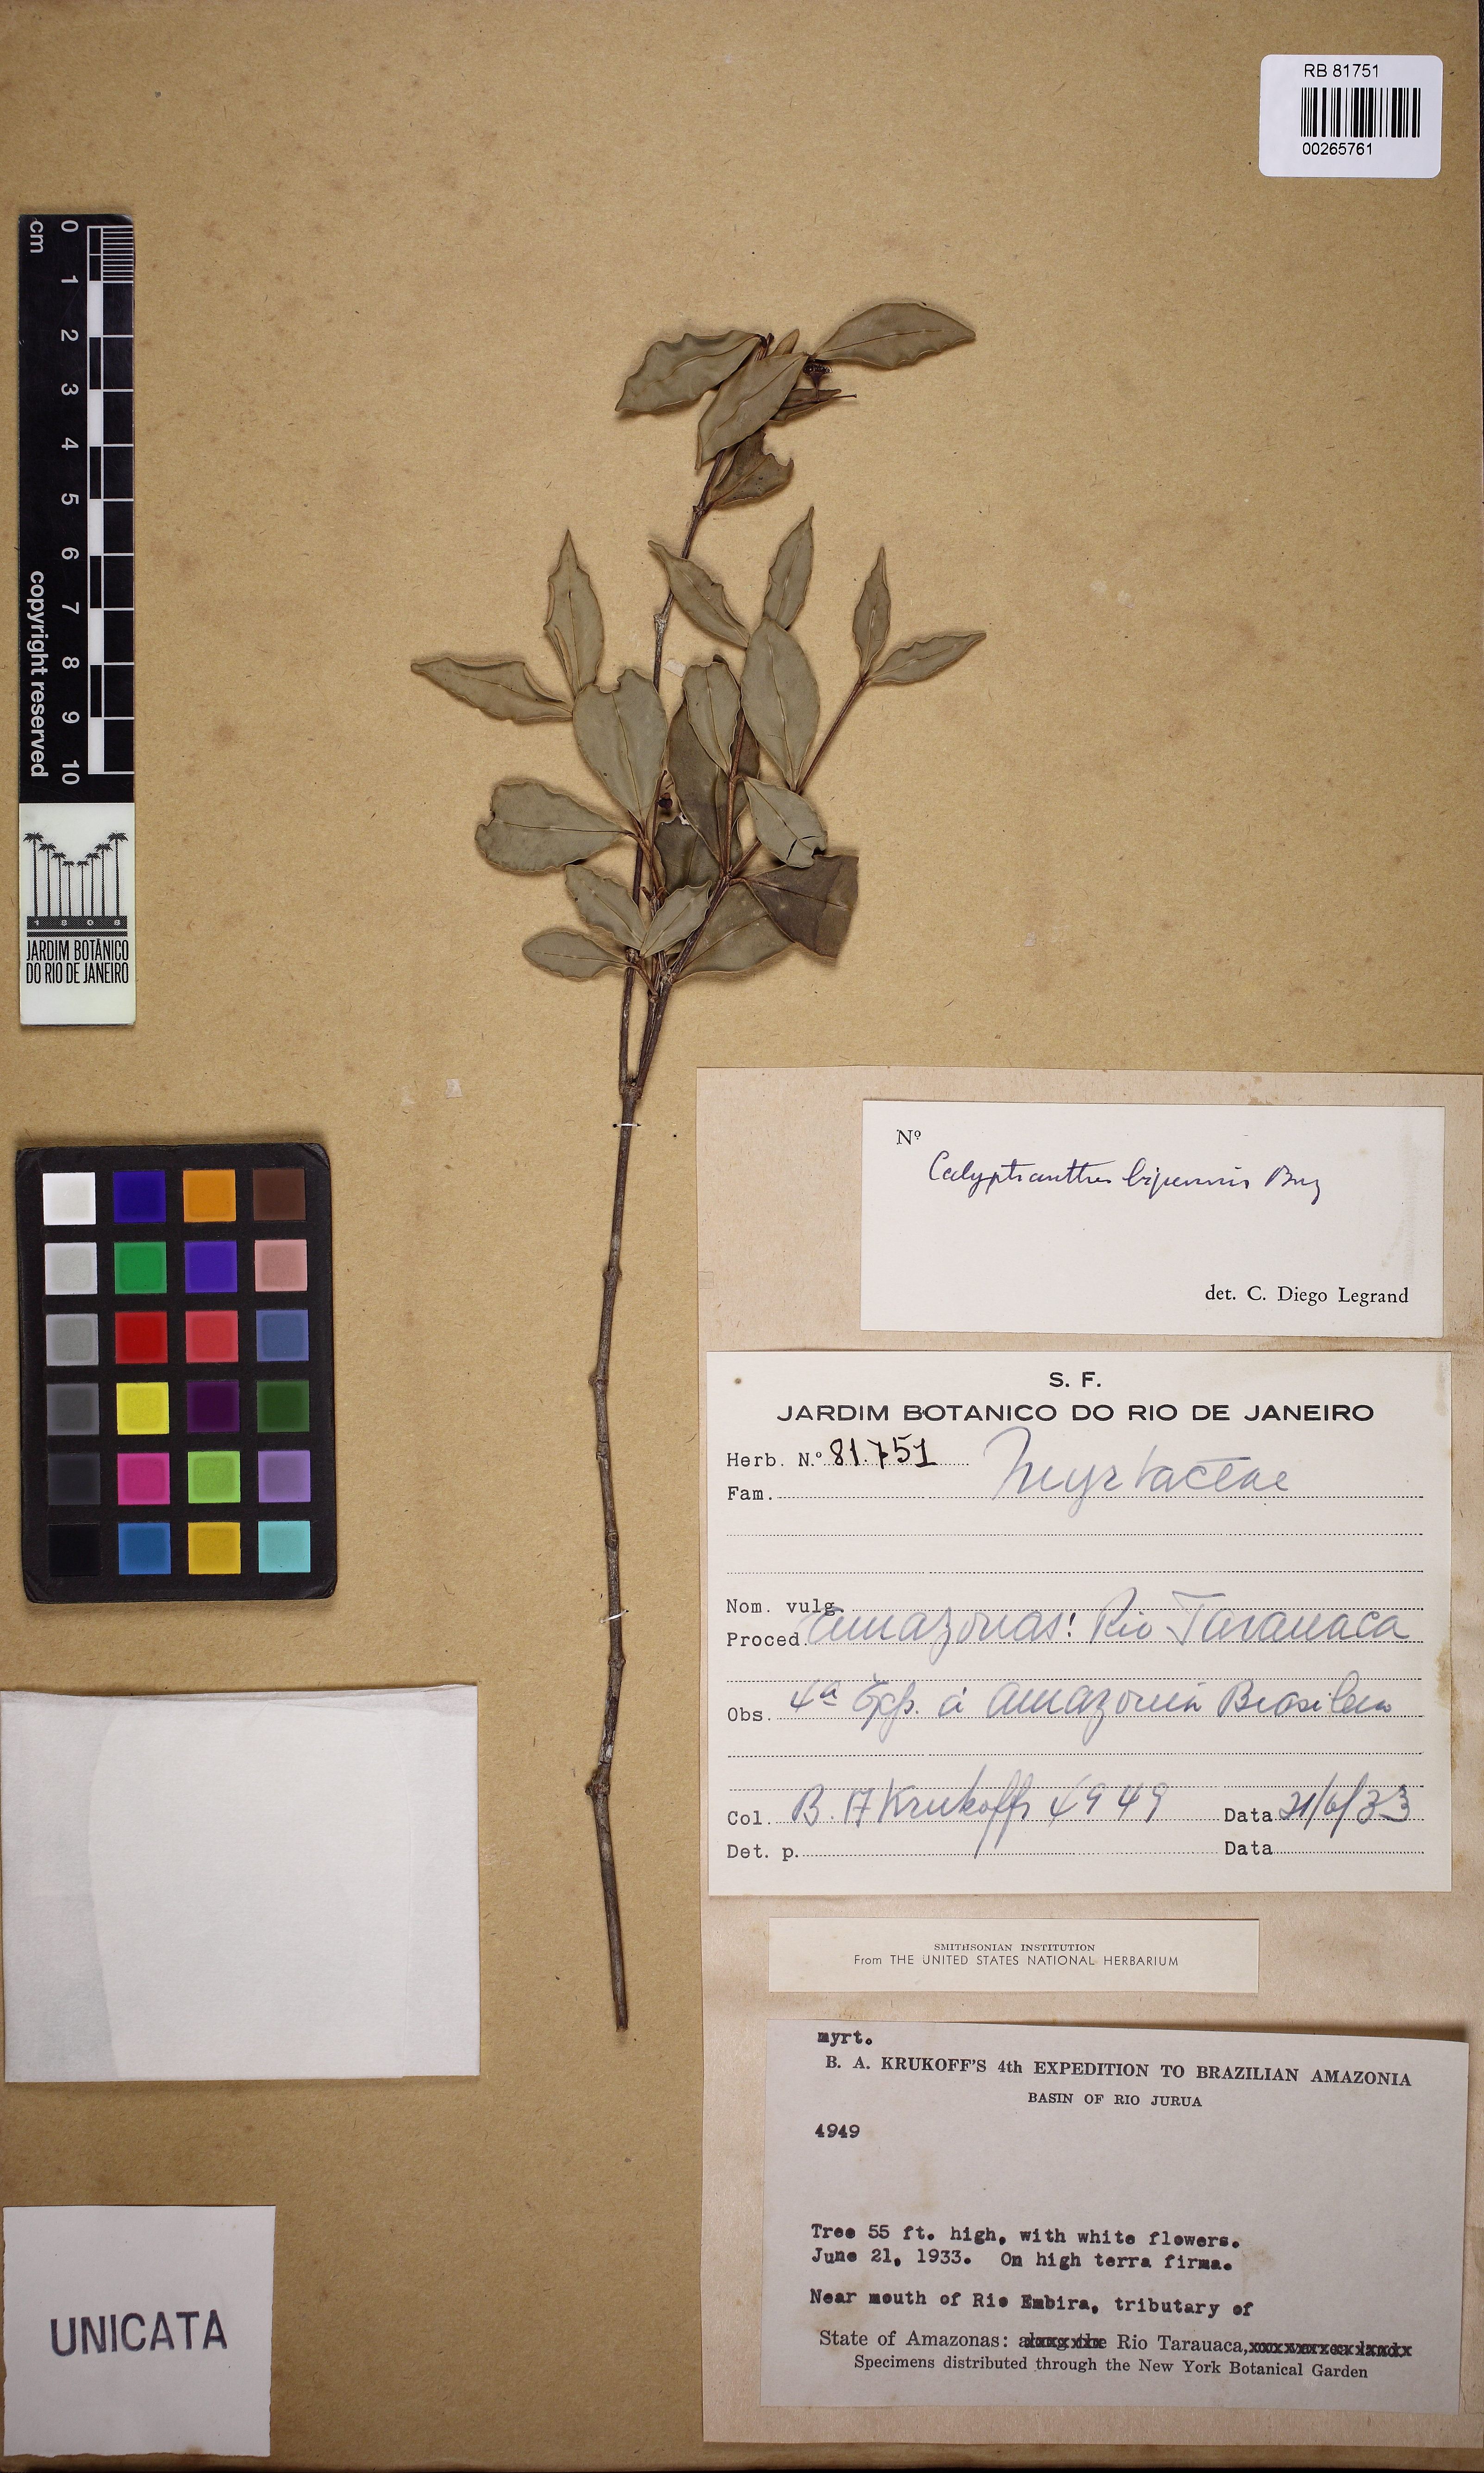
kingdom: Plantae
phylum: Tracheophyta
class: Magnoliopsida
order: Myrtales
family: Myrtaceae
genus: Myrcia
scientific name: Myrcia tenuiflora
